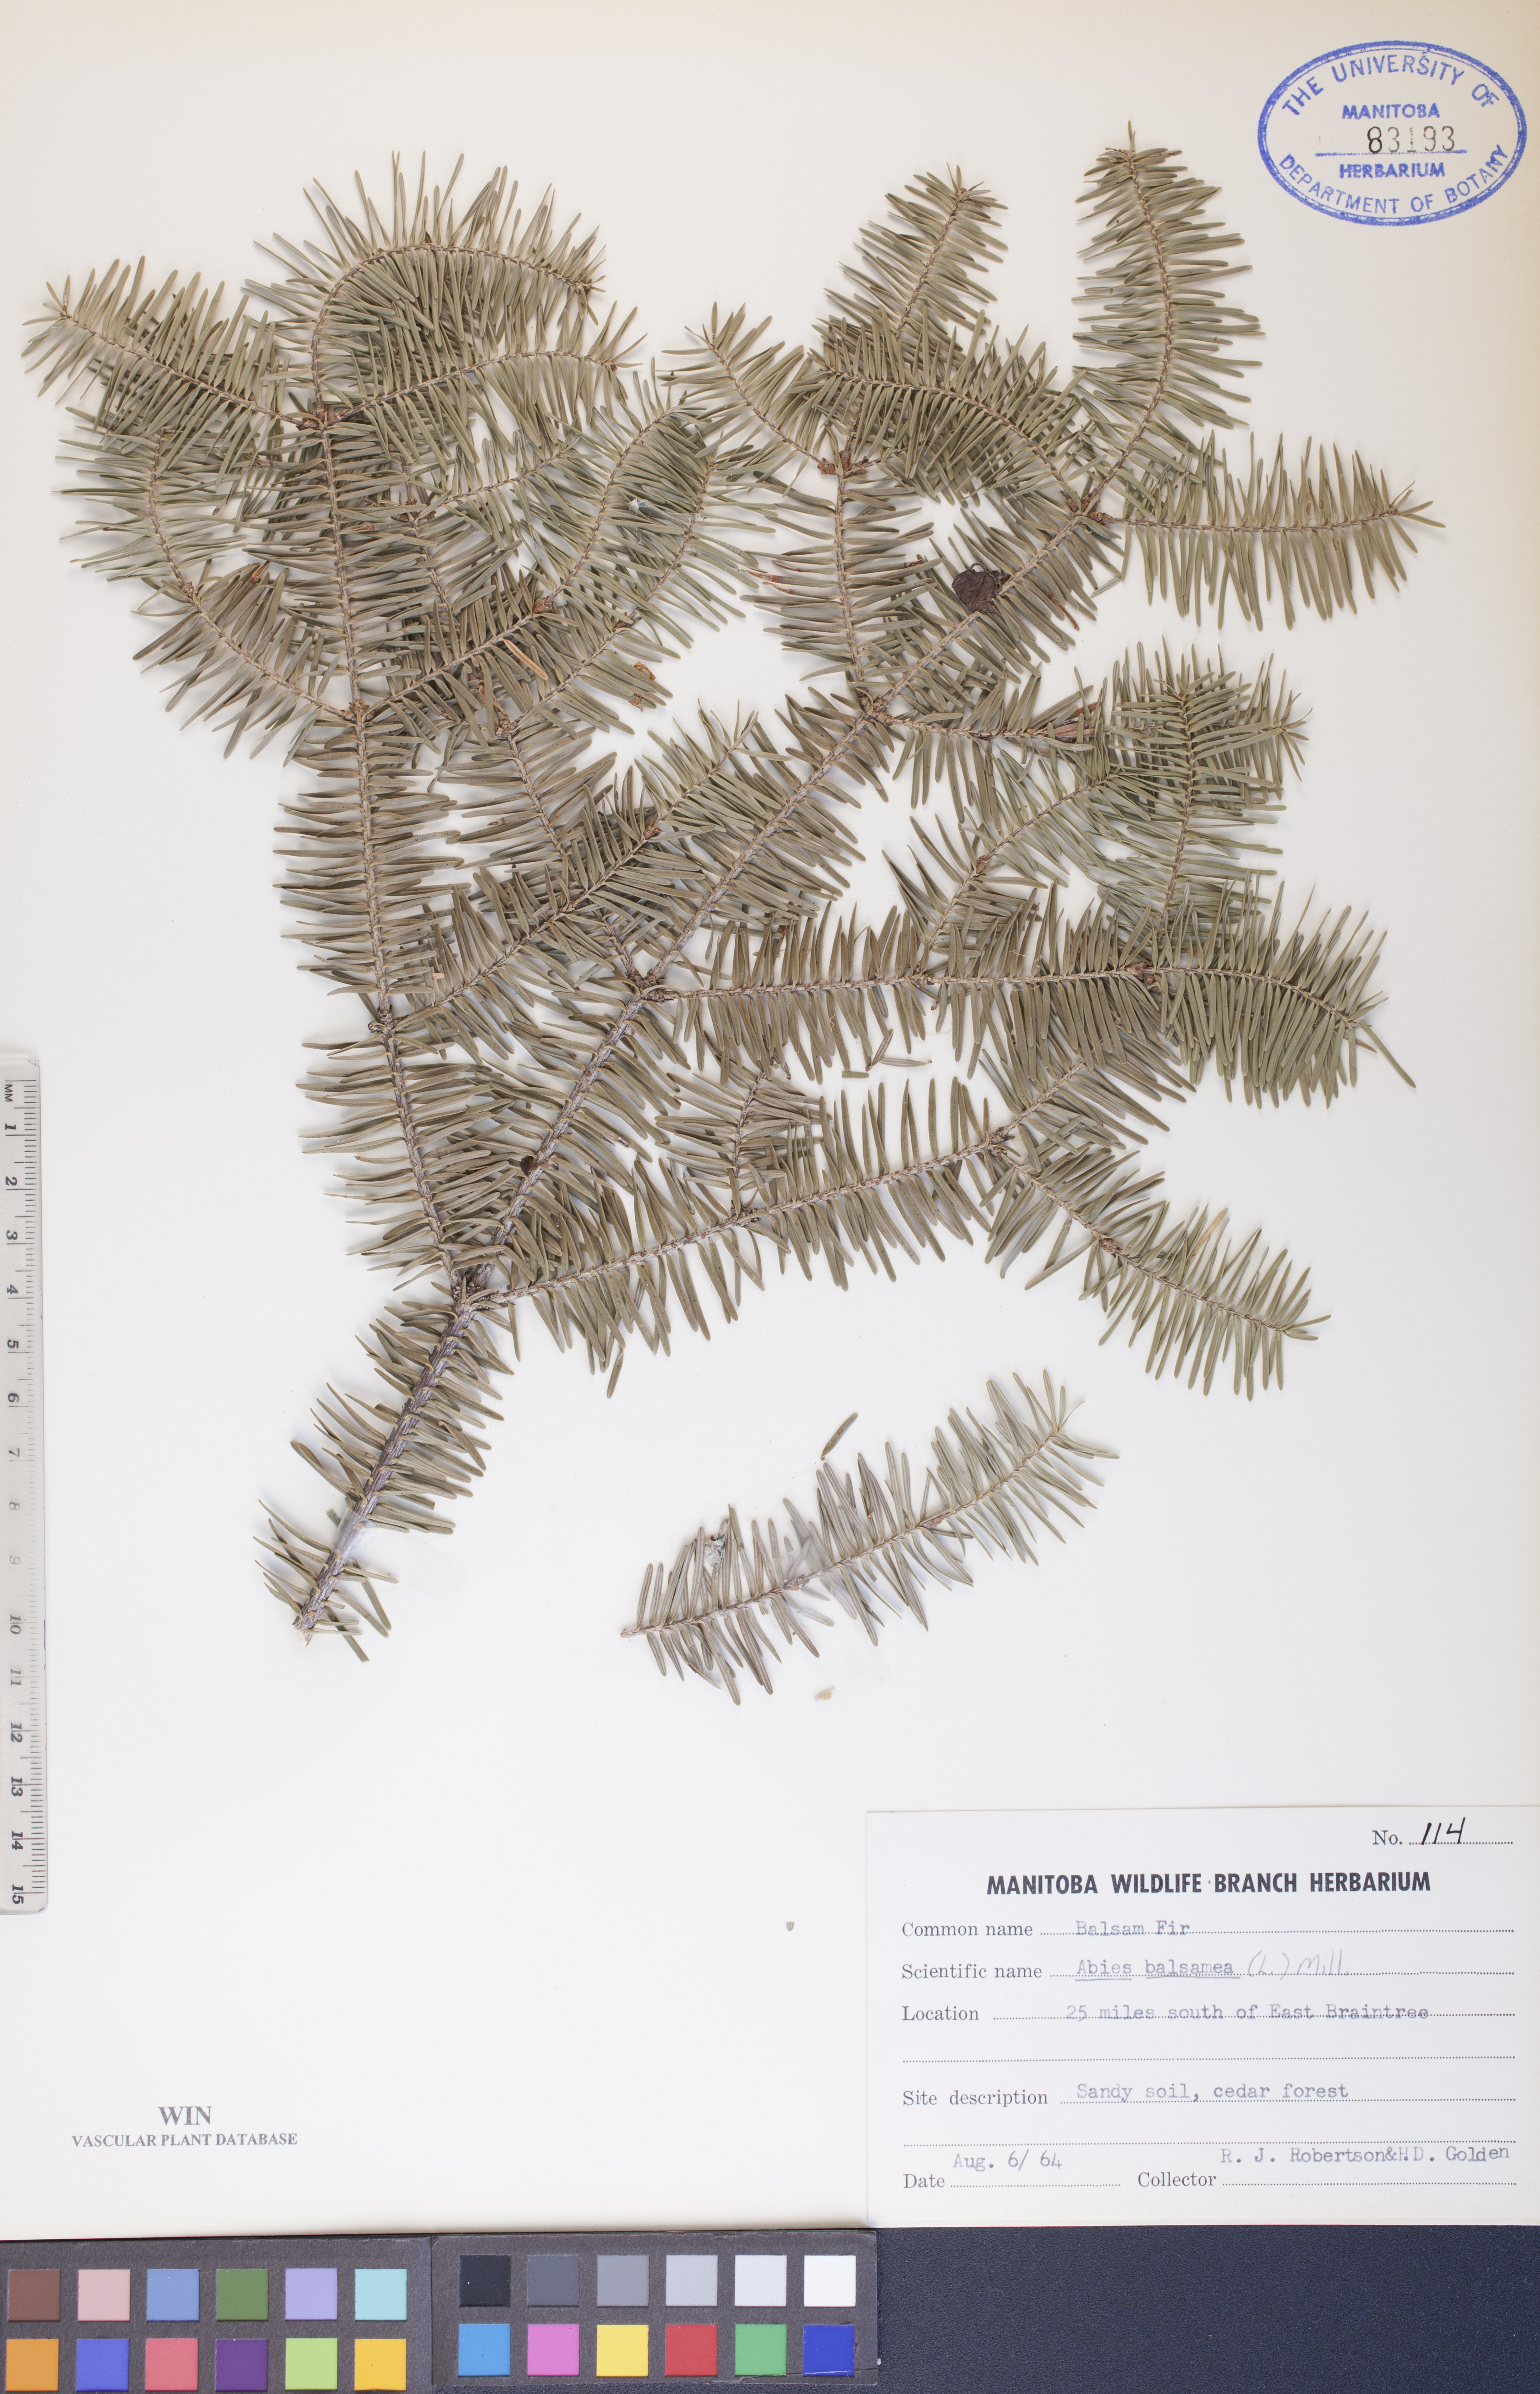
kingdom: Plantae
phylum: Tracheophyta
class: Pinopsida
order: Pinales
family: Pinaceae
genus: Abies
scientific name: Abies balsamea
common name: Balsam fir
